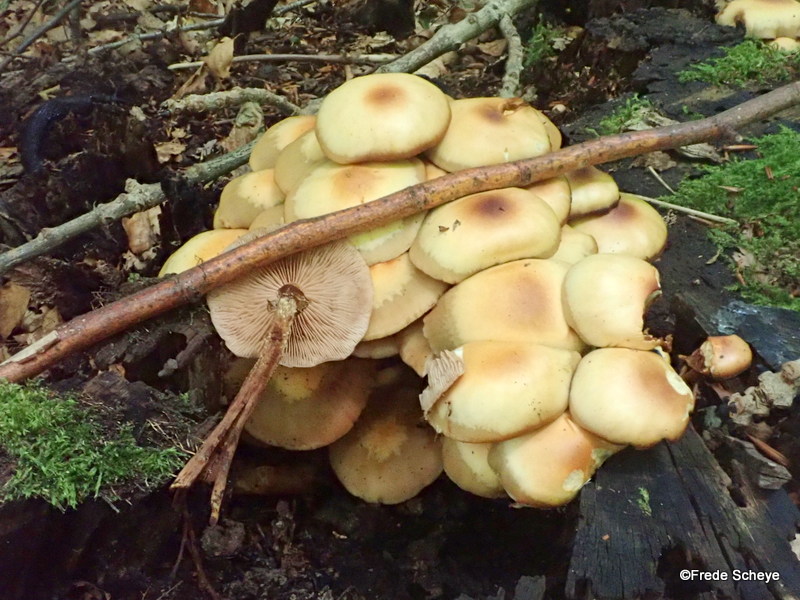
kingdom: Fungi
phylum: Basidiomycota
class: Agaricomycetes
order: Agaricales
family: Strophariaceae
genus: Kuehneromyces
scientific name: Kuehneromyces mutabilis
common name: foranderlig skælhat
